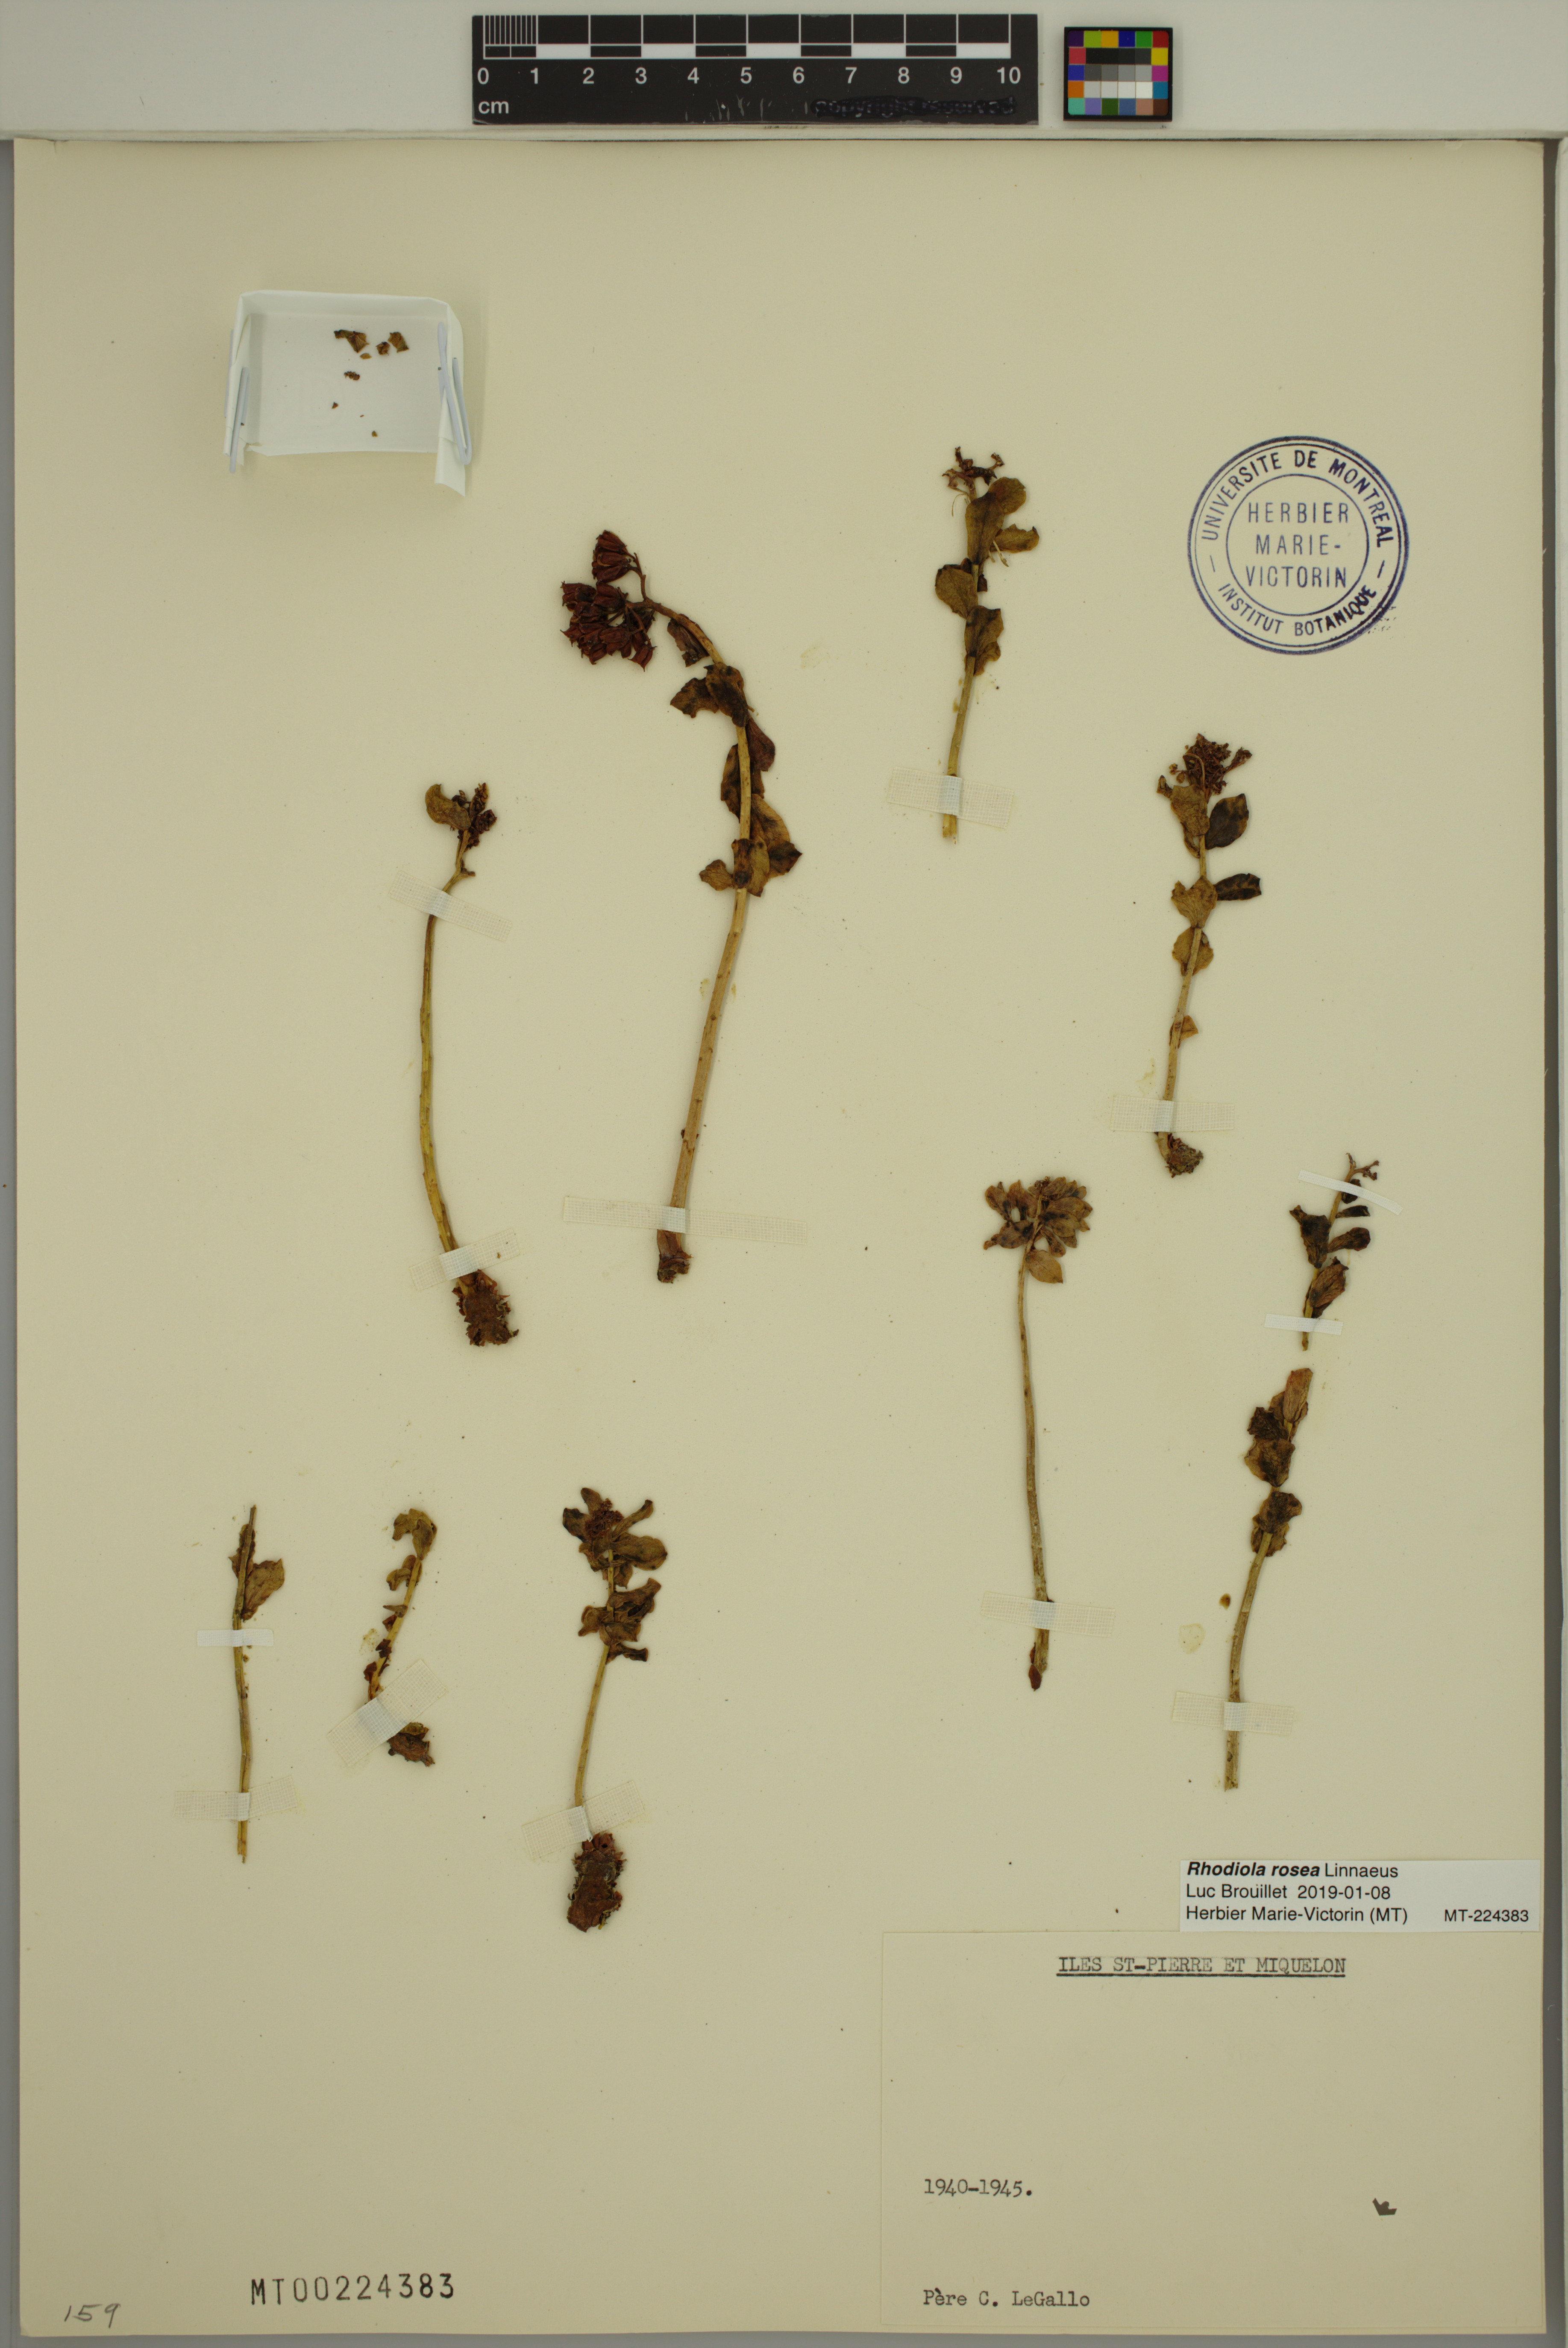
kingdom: Plantae
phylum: Tracheophyta
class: Magnoliopsida
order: Saxifragales
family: Crassulaceae
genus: Rhodiola
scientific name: Rhodiola rosea
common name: Roseroot
